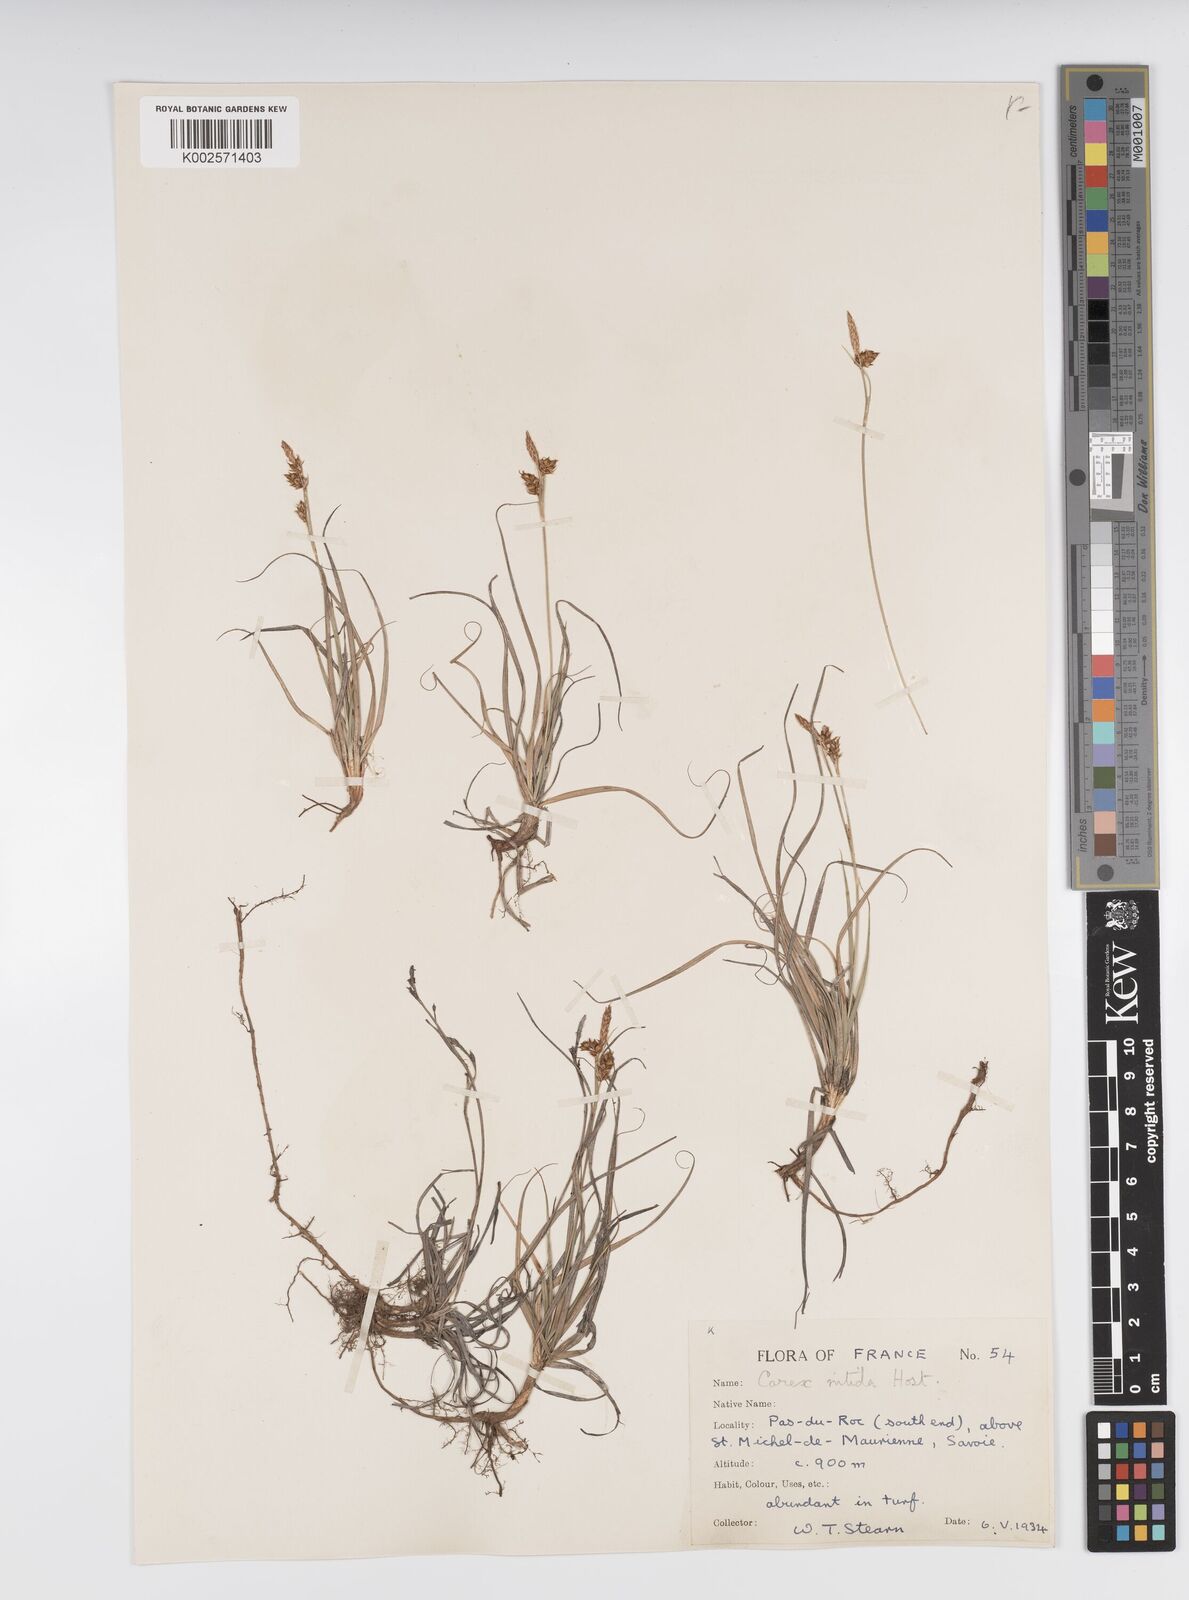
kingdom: Plantae
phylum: Tracheophyta
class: Liliopsida
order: Poales
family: Cyperaceae
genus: Carex
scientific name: Carex liparocarpos
